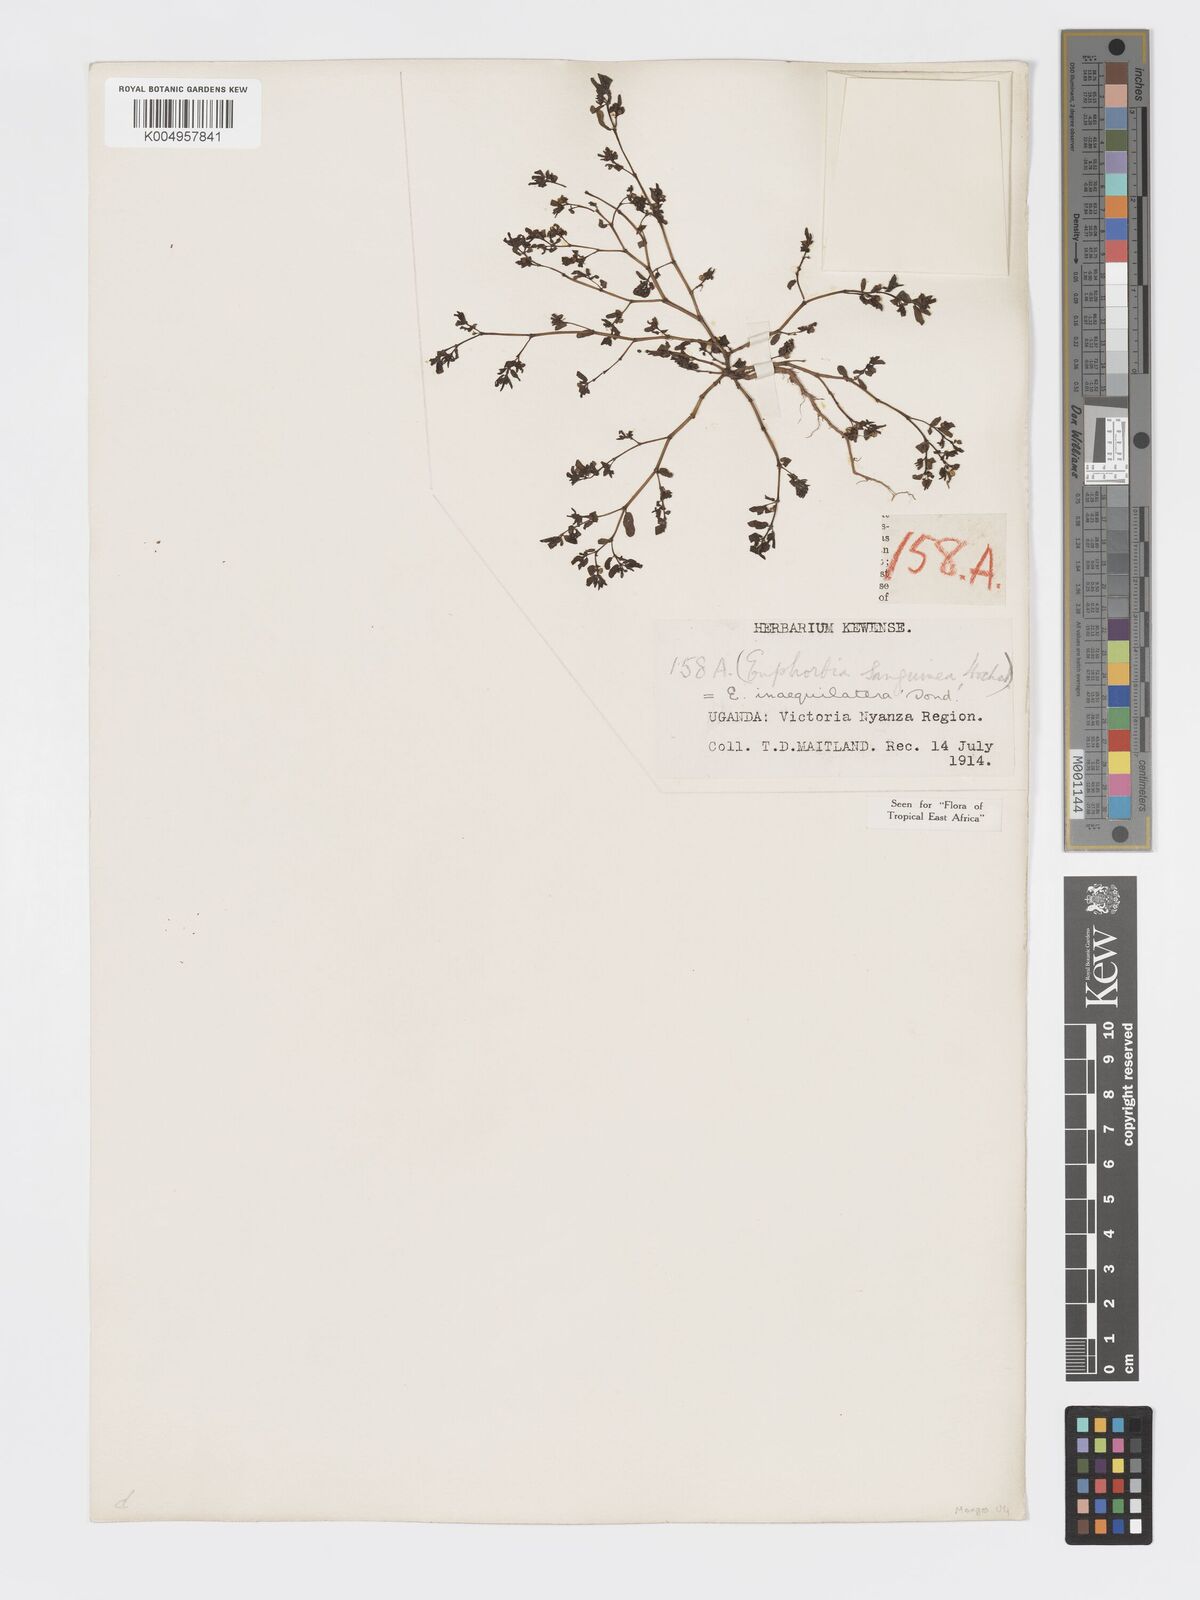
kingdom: Plantae
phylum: Tracheophyta
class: Magnoliopsida
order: Malpighiales
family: Euphorbiaceae
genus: Euphorbia
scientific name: Euphorbia inaequilatera
